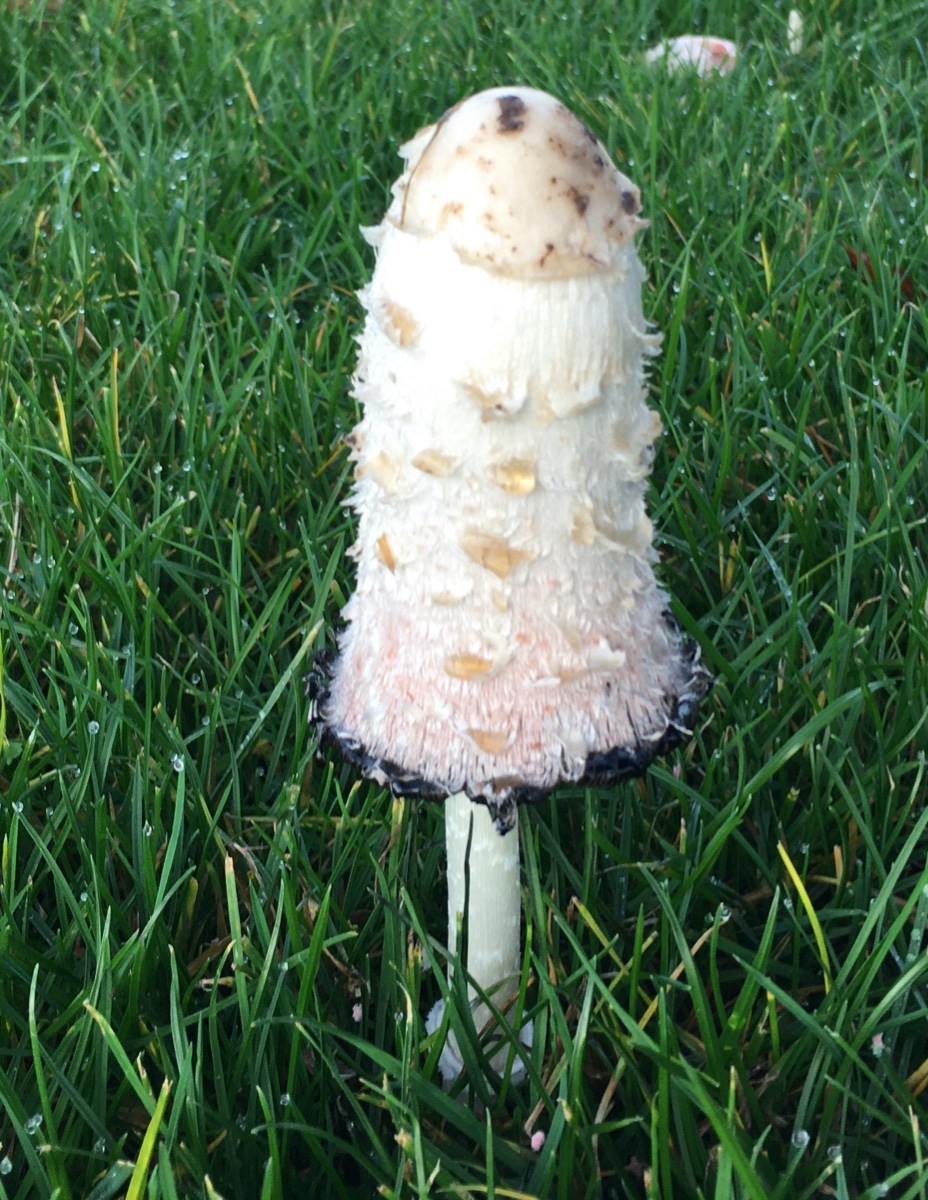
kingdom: Fungi
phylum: Basidiomycota
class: Agaricomycetes
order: Agaricales
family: Agaricaceae
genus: Coprinus
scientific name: Coprinus comatus
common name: stor parykhat
